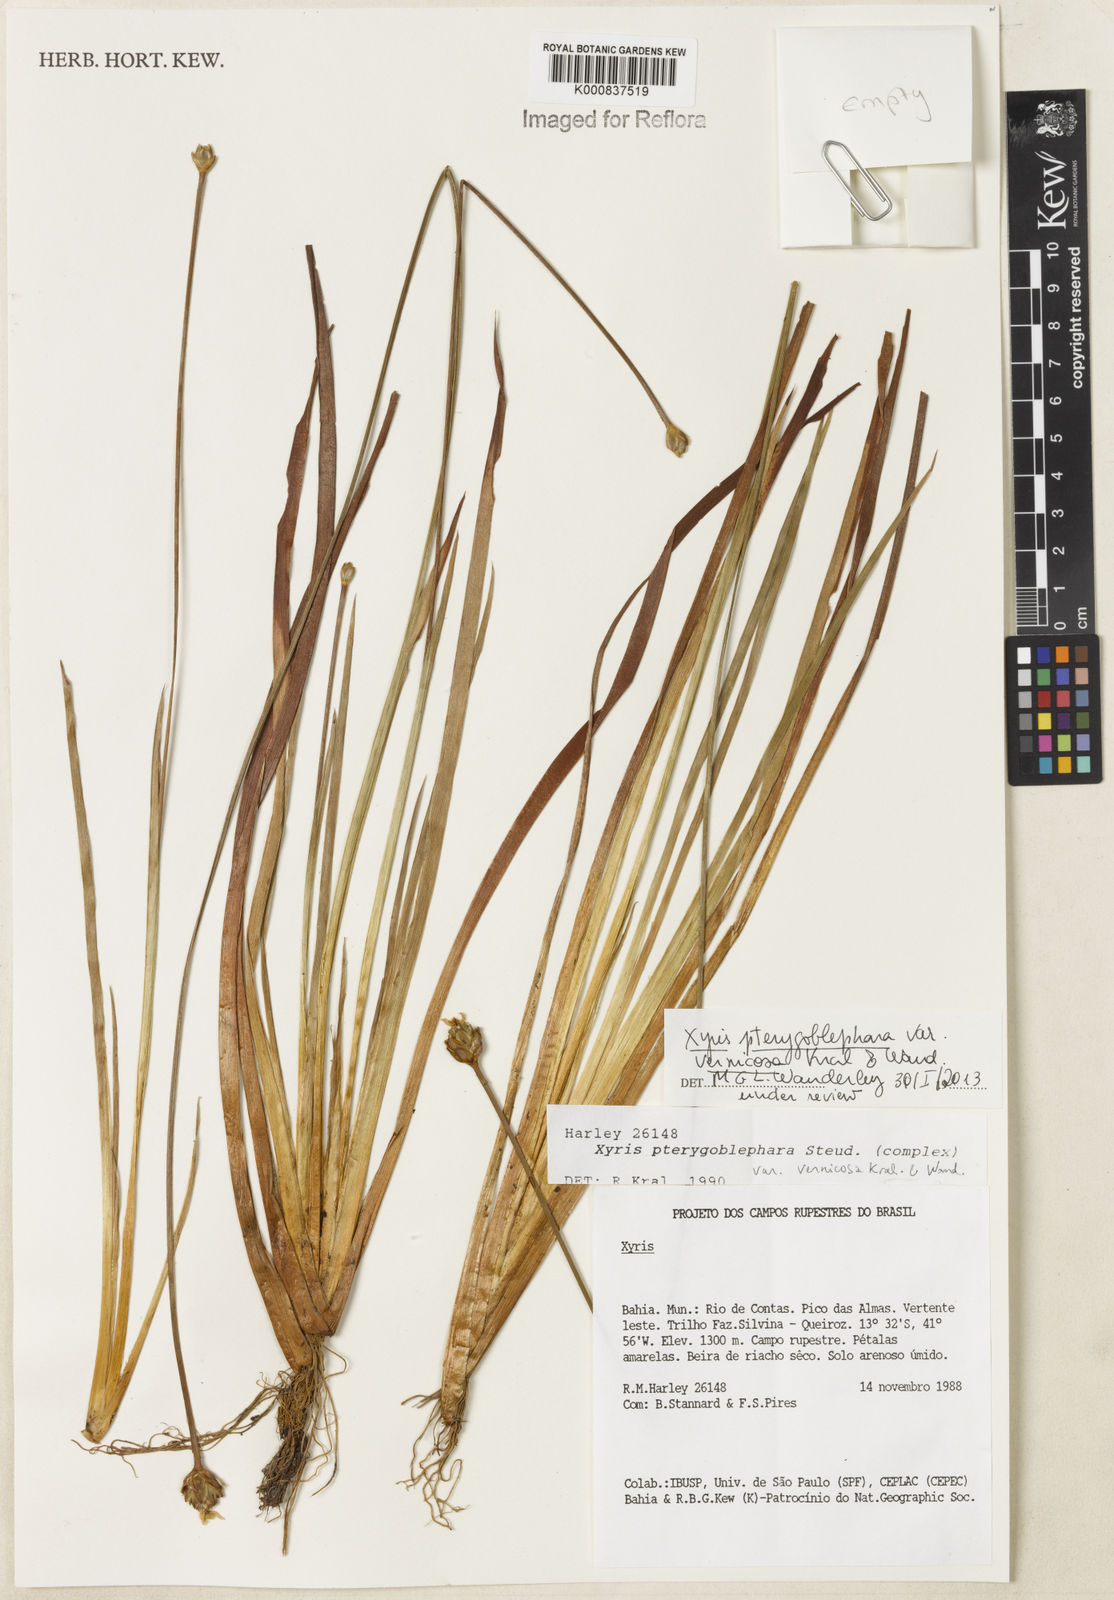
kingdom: Plantae
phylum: Tracheophyta
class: Liliopsida
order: Poales
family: Xyridaceae
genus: Xyris
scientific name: Xyris pterygoblephara
